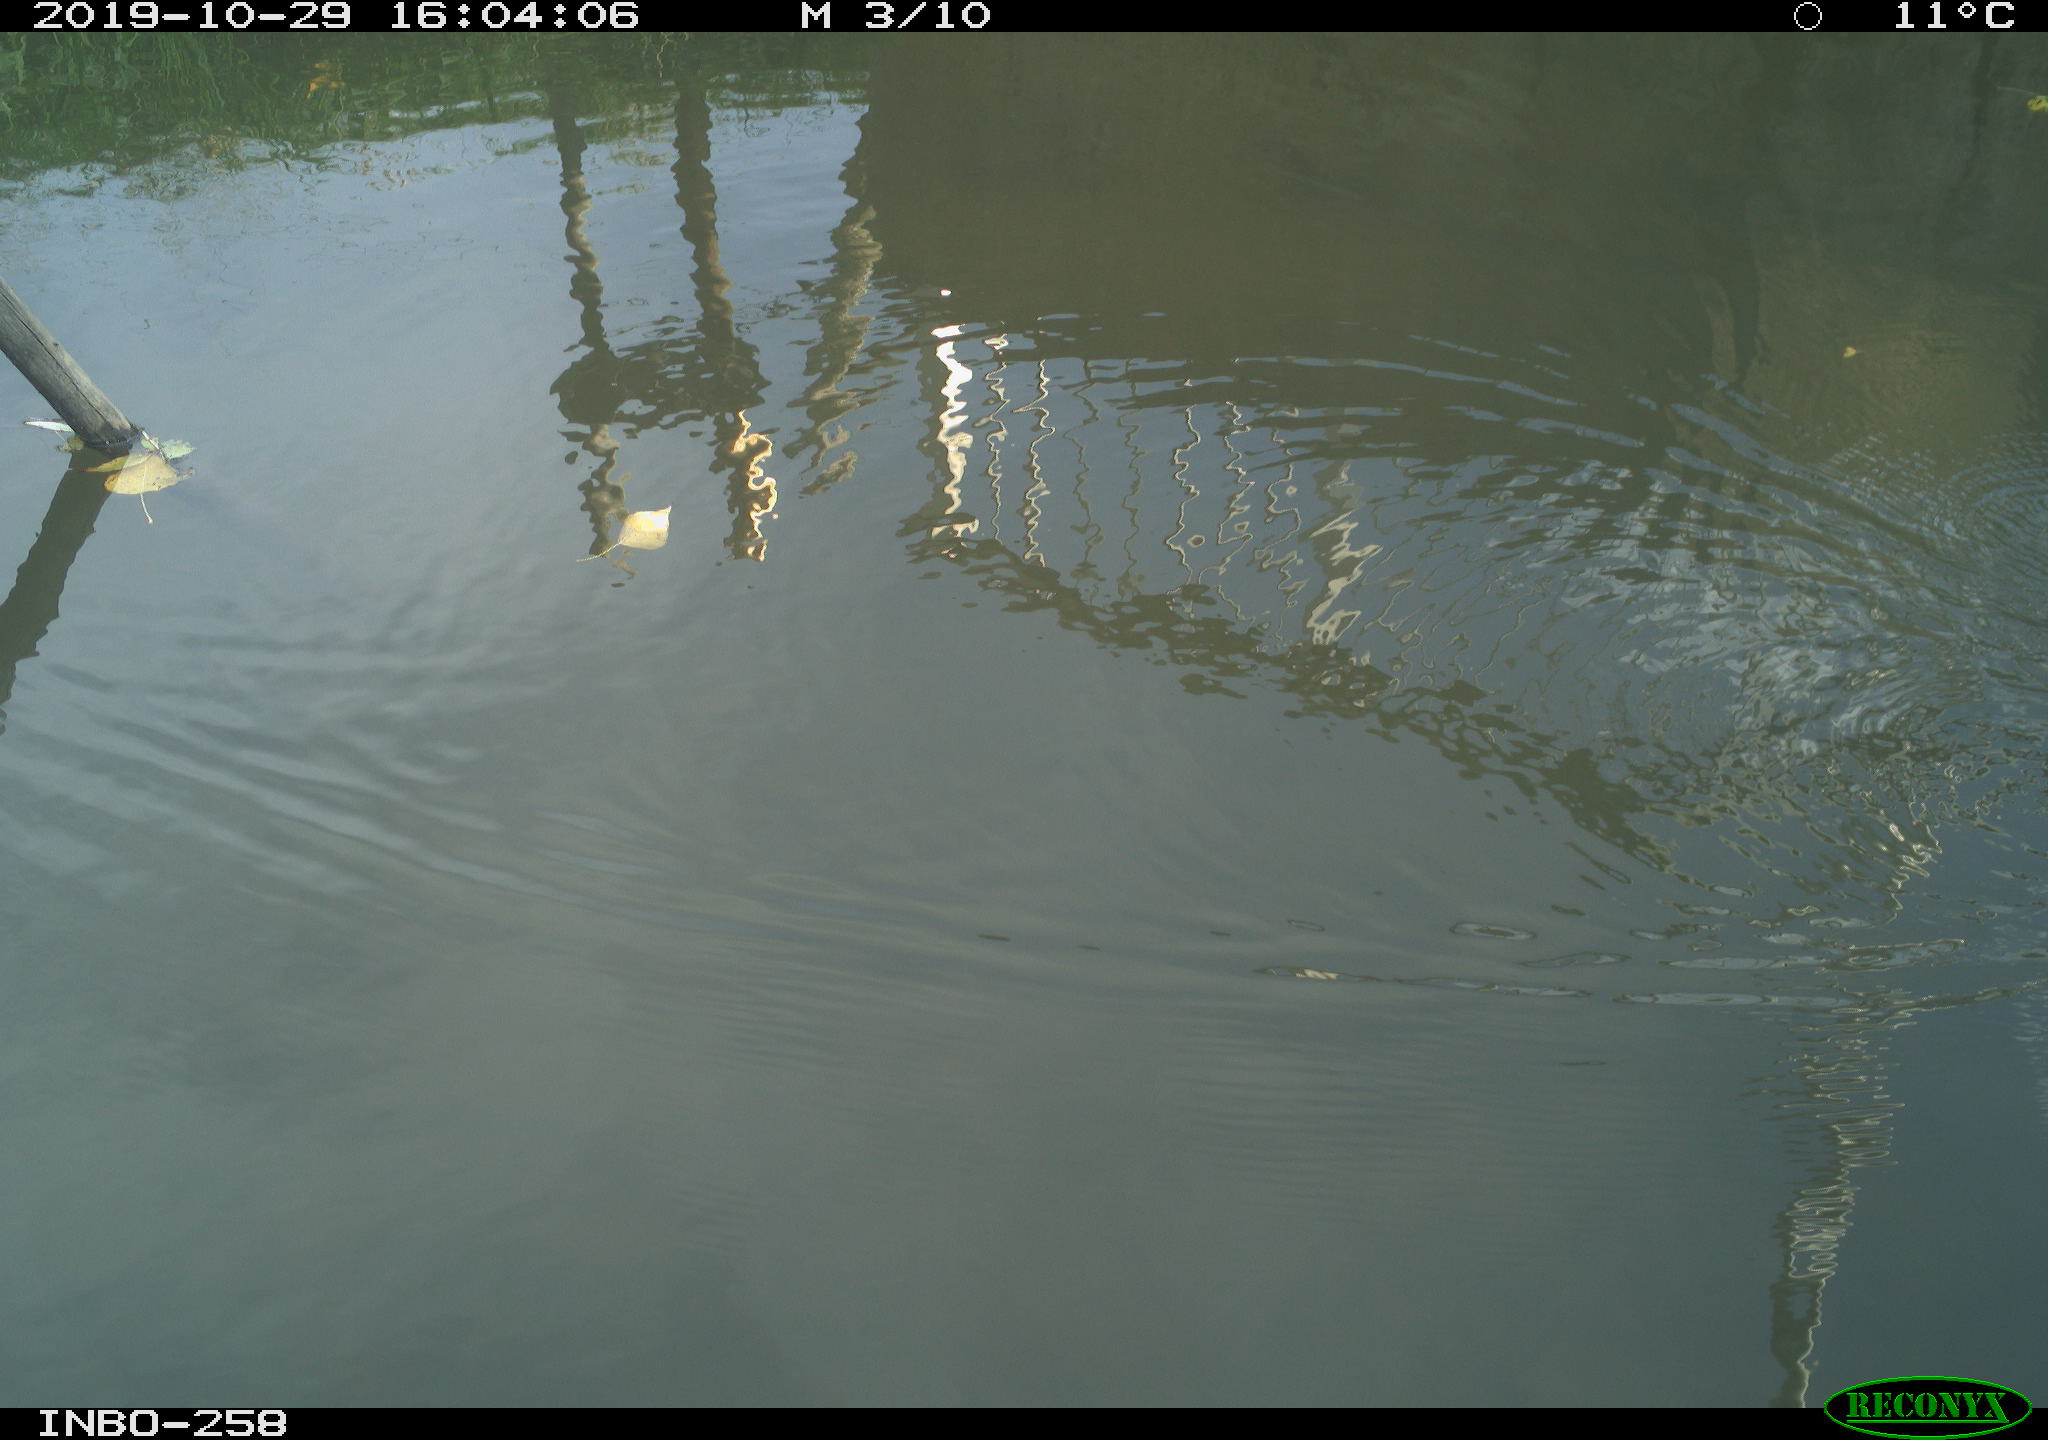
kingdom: Animalia
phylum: Chordata
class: Aves
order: Gruiformes
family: Rallidae
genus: Gallinula
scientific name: Gallinula chloropus
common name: Common moorhen
